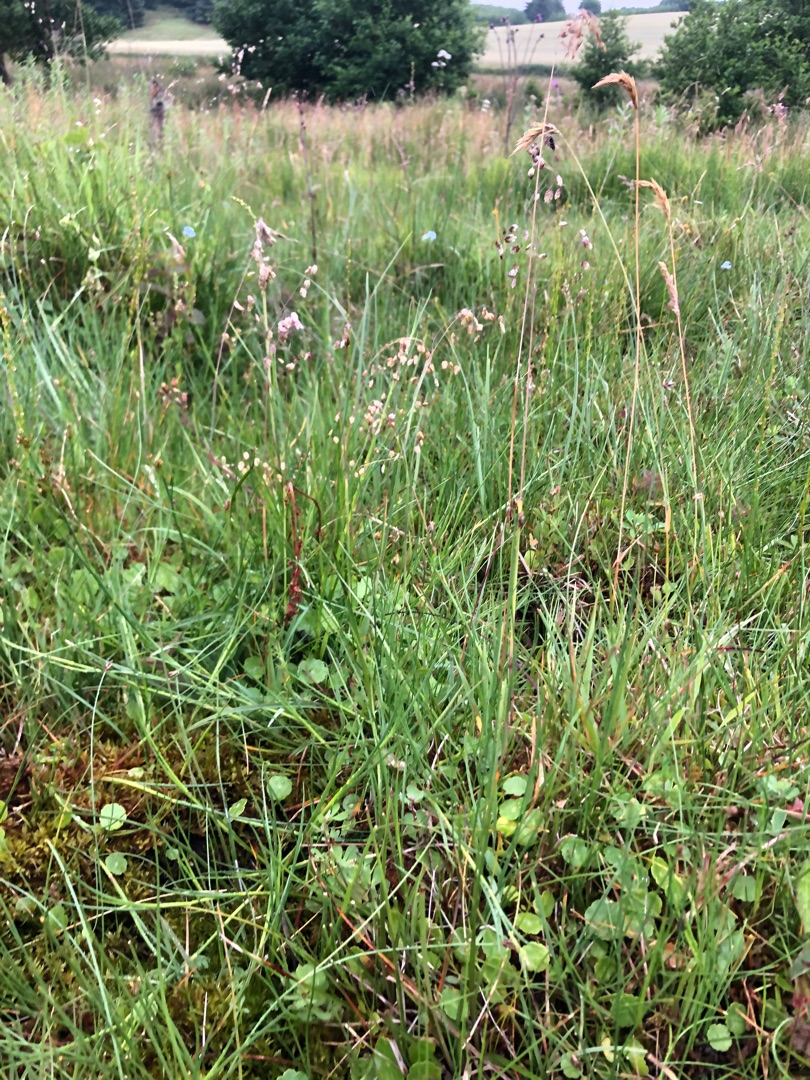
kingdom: Plantae
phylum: Tracheophyta
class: Liliopsida
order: Poales
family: Poaceae
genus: Briza
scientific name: Briza media
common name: Hjertegræs
